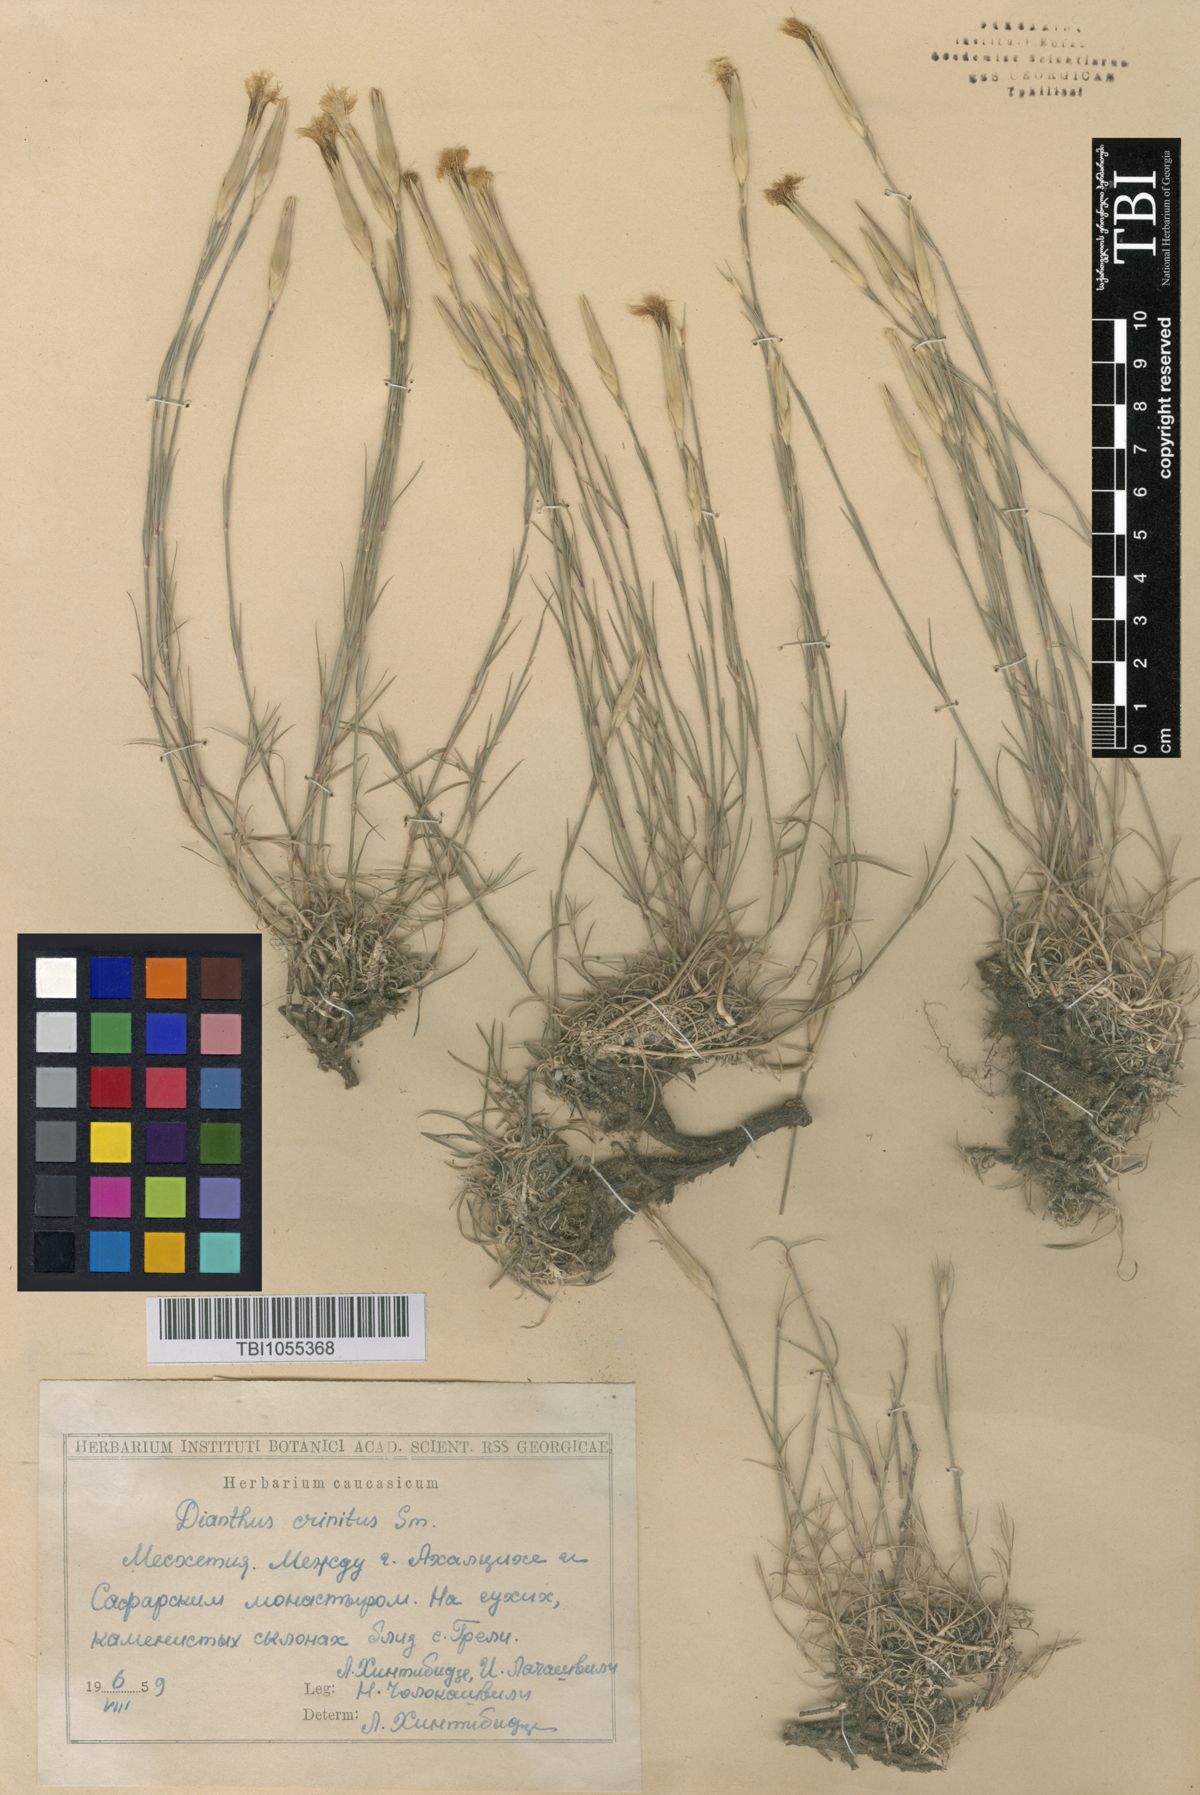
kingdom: Plantae
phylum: Tracheophyta
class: Magnoliopsida
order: Caryophyllales
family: Caryophyllaceae
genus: Dianthus
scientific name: Dianthus crinitus
